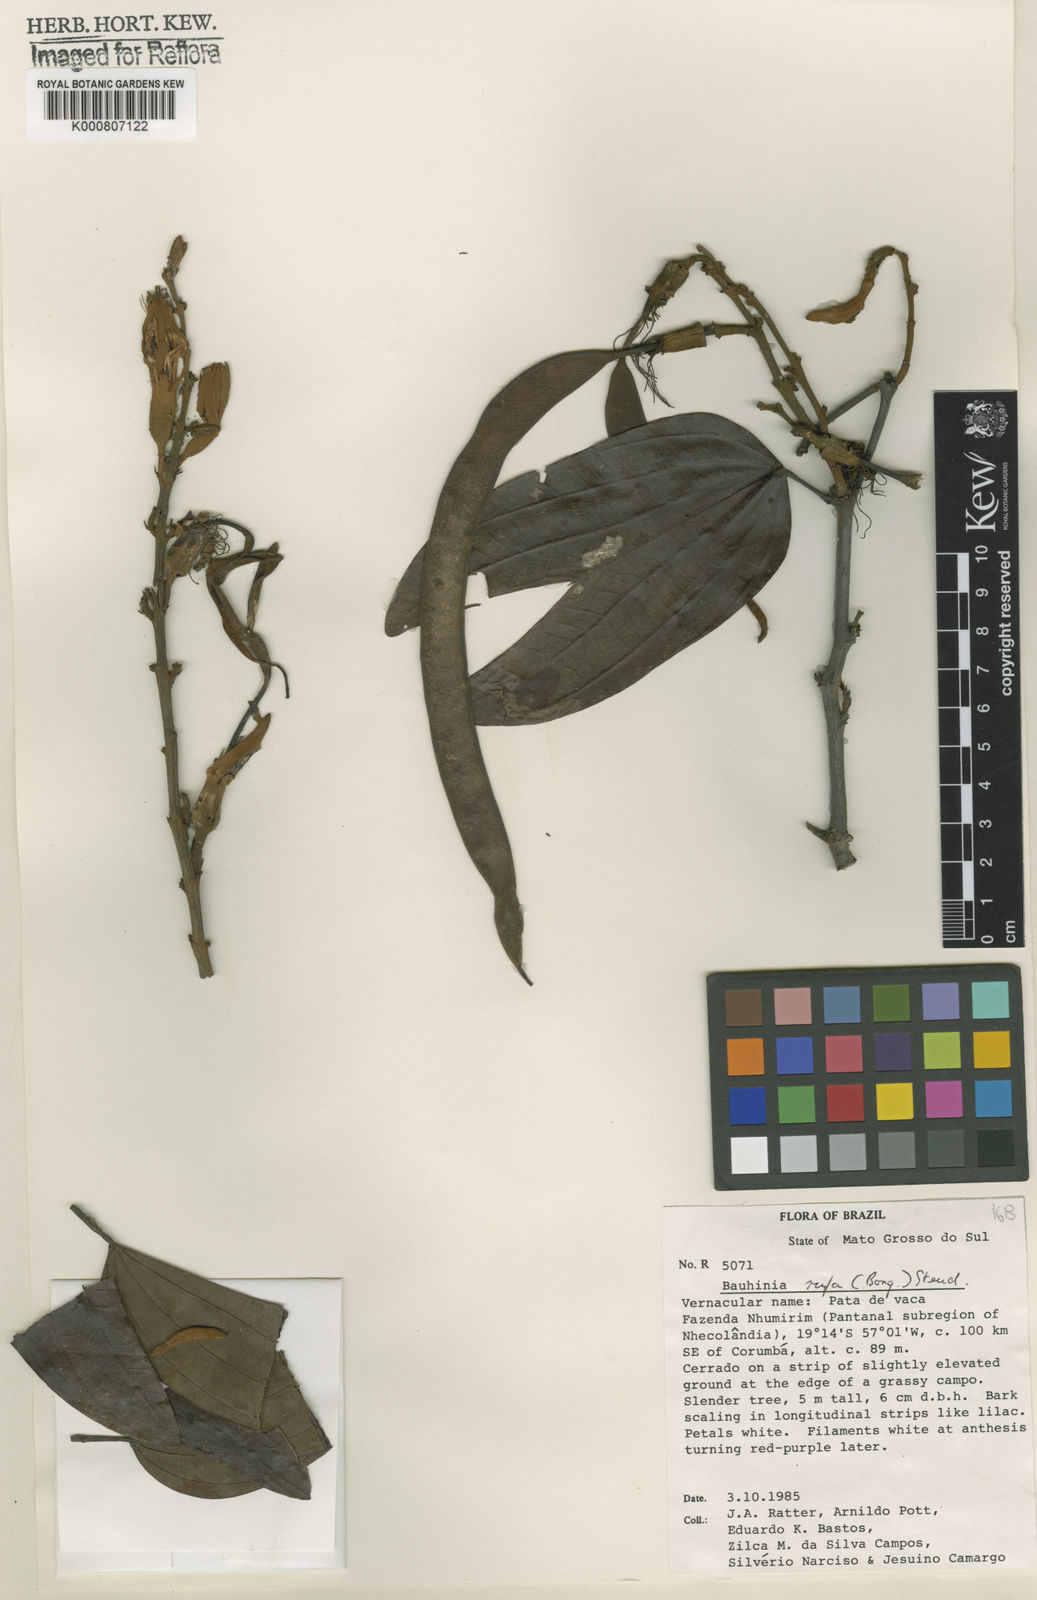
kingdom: Plantae
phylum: Tracheophyta
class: Magnoliopsida
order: Fabales
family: Fabaceae
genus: Bauhinia
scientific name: Bauhinia rufa
